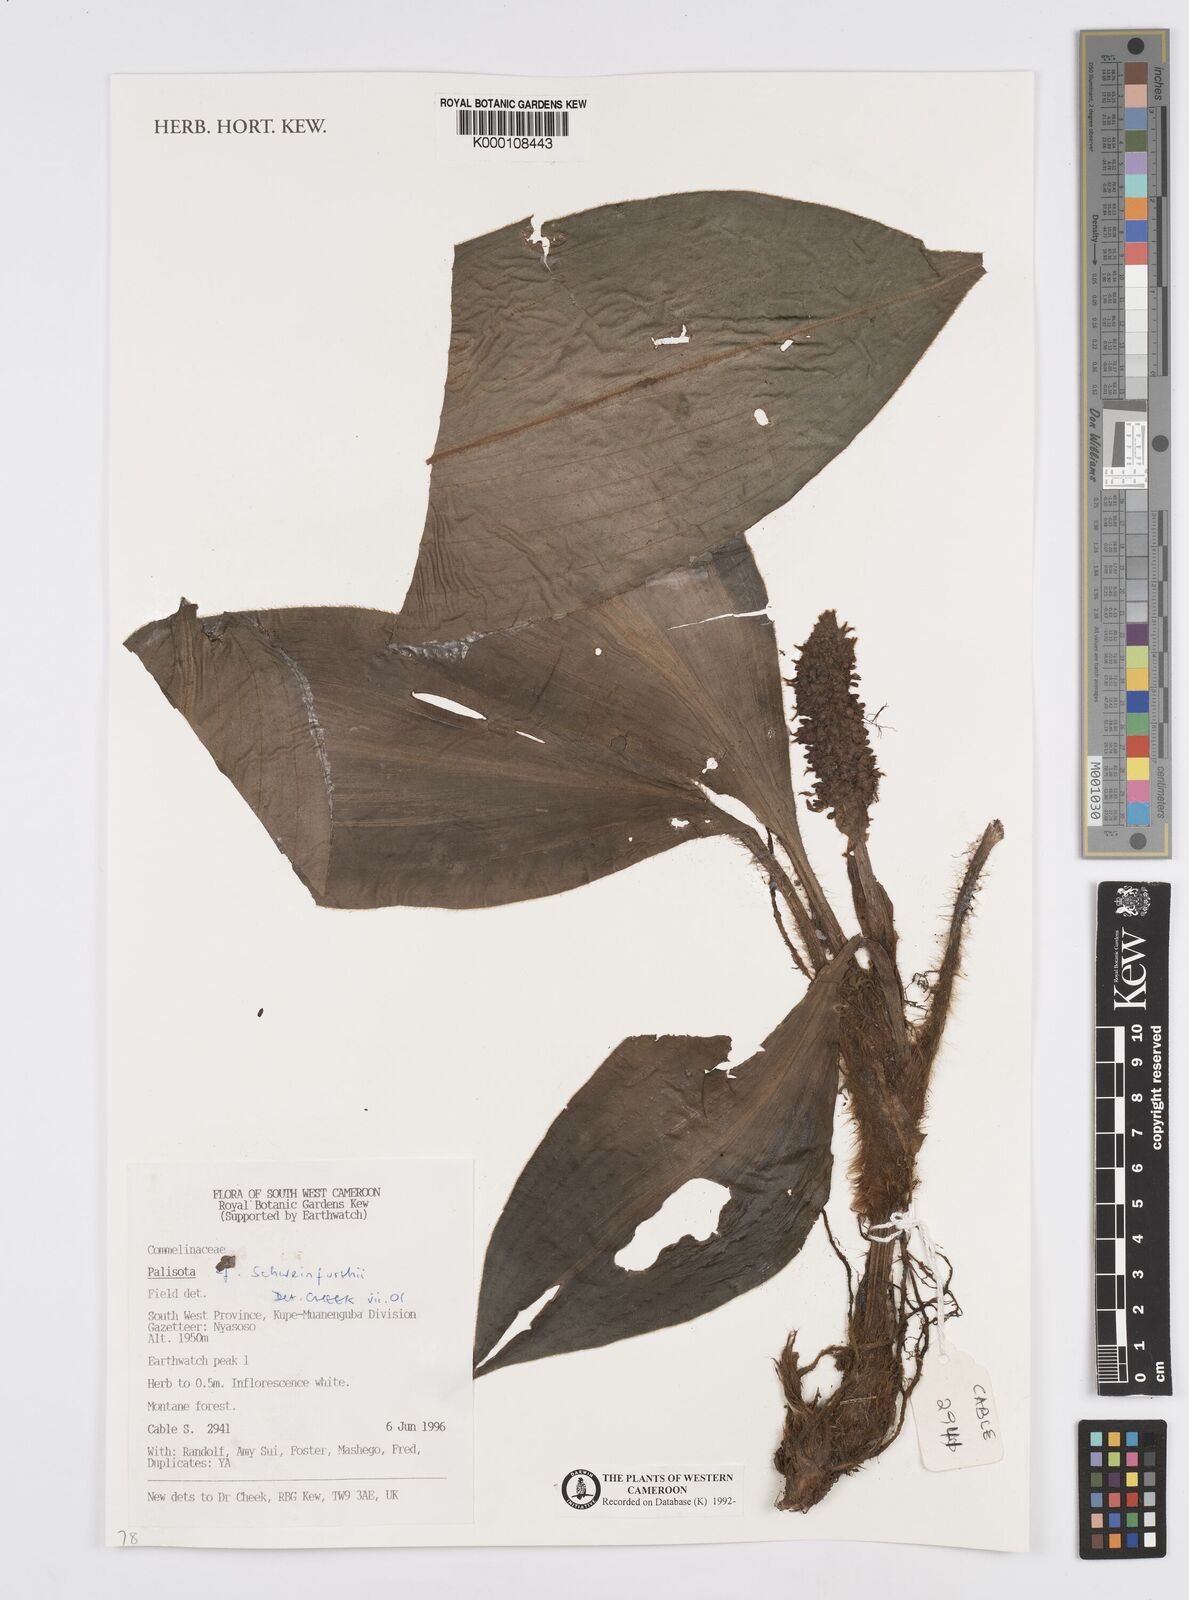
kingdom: Plantae
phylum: Tracheophyta
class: Liliopsida
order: Commelinales
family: Commelinaceae
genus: Palisota
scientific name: Palisota schweinfurthii
